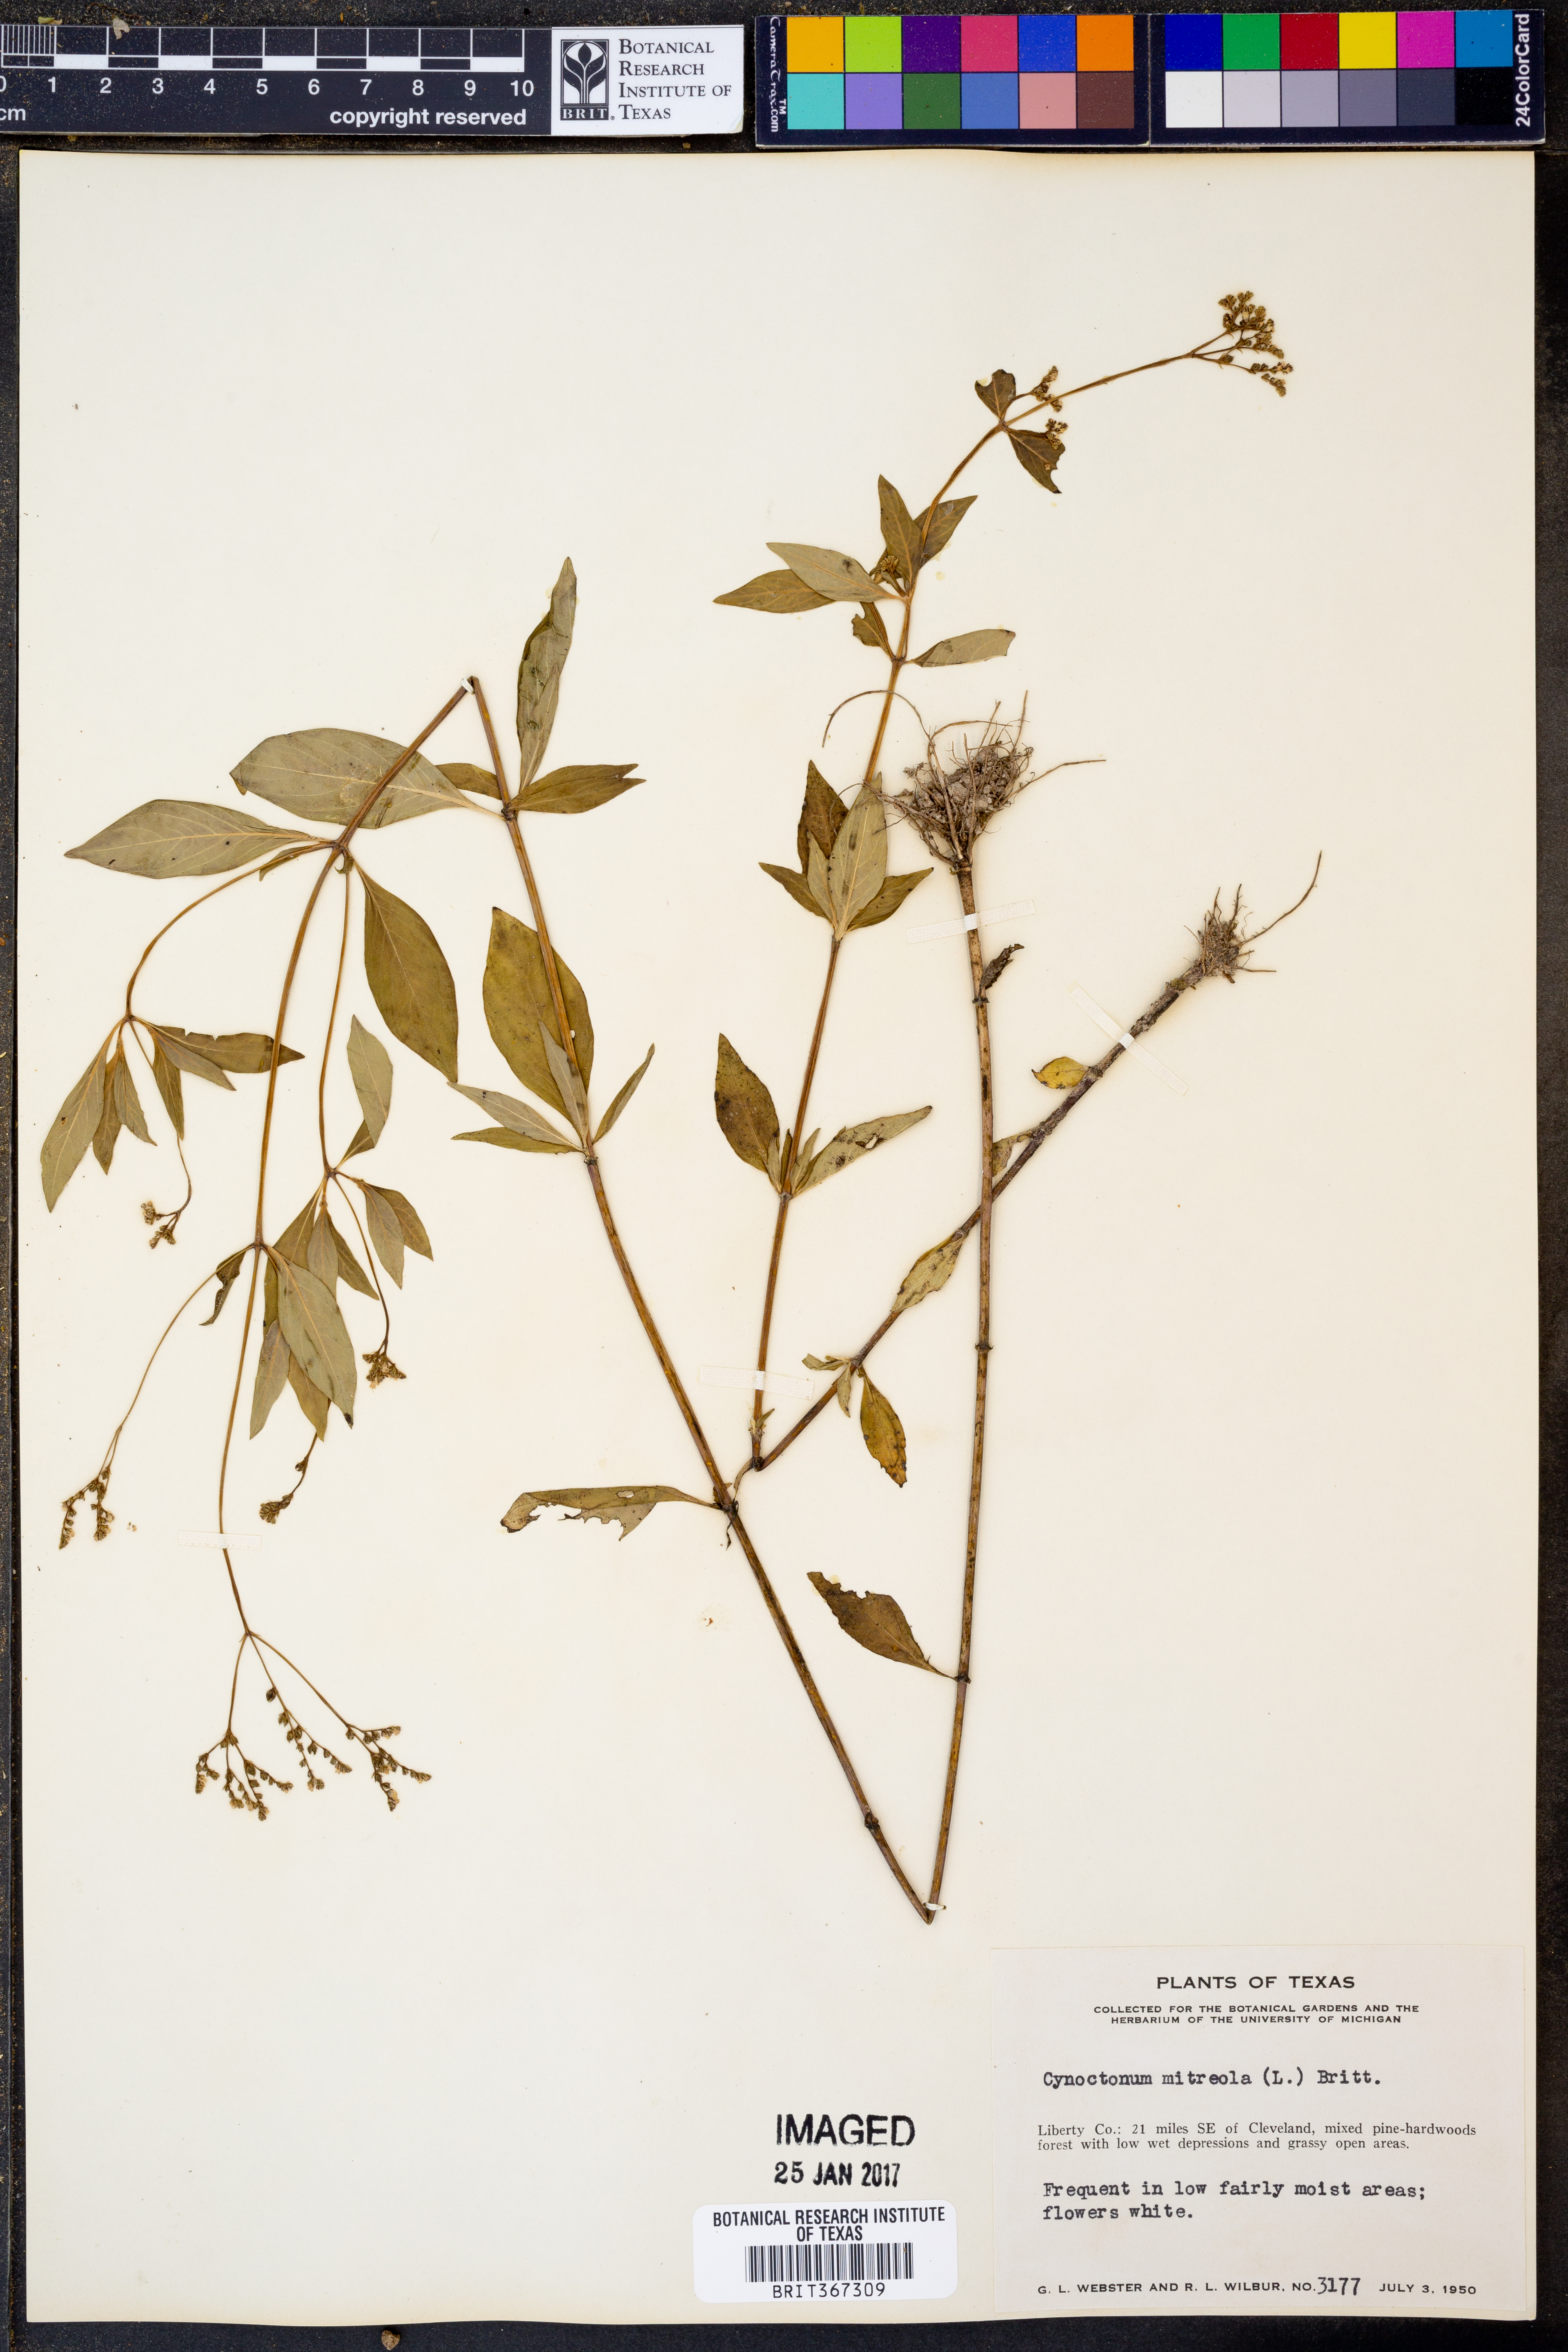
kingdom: Plantae
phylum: Tracheophyta
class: Magnoliopsida
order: Gentianales
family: Loganiaceae
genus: Mitreola
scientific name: Mitreola petiolata
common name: Lax hornpod
